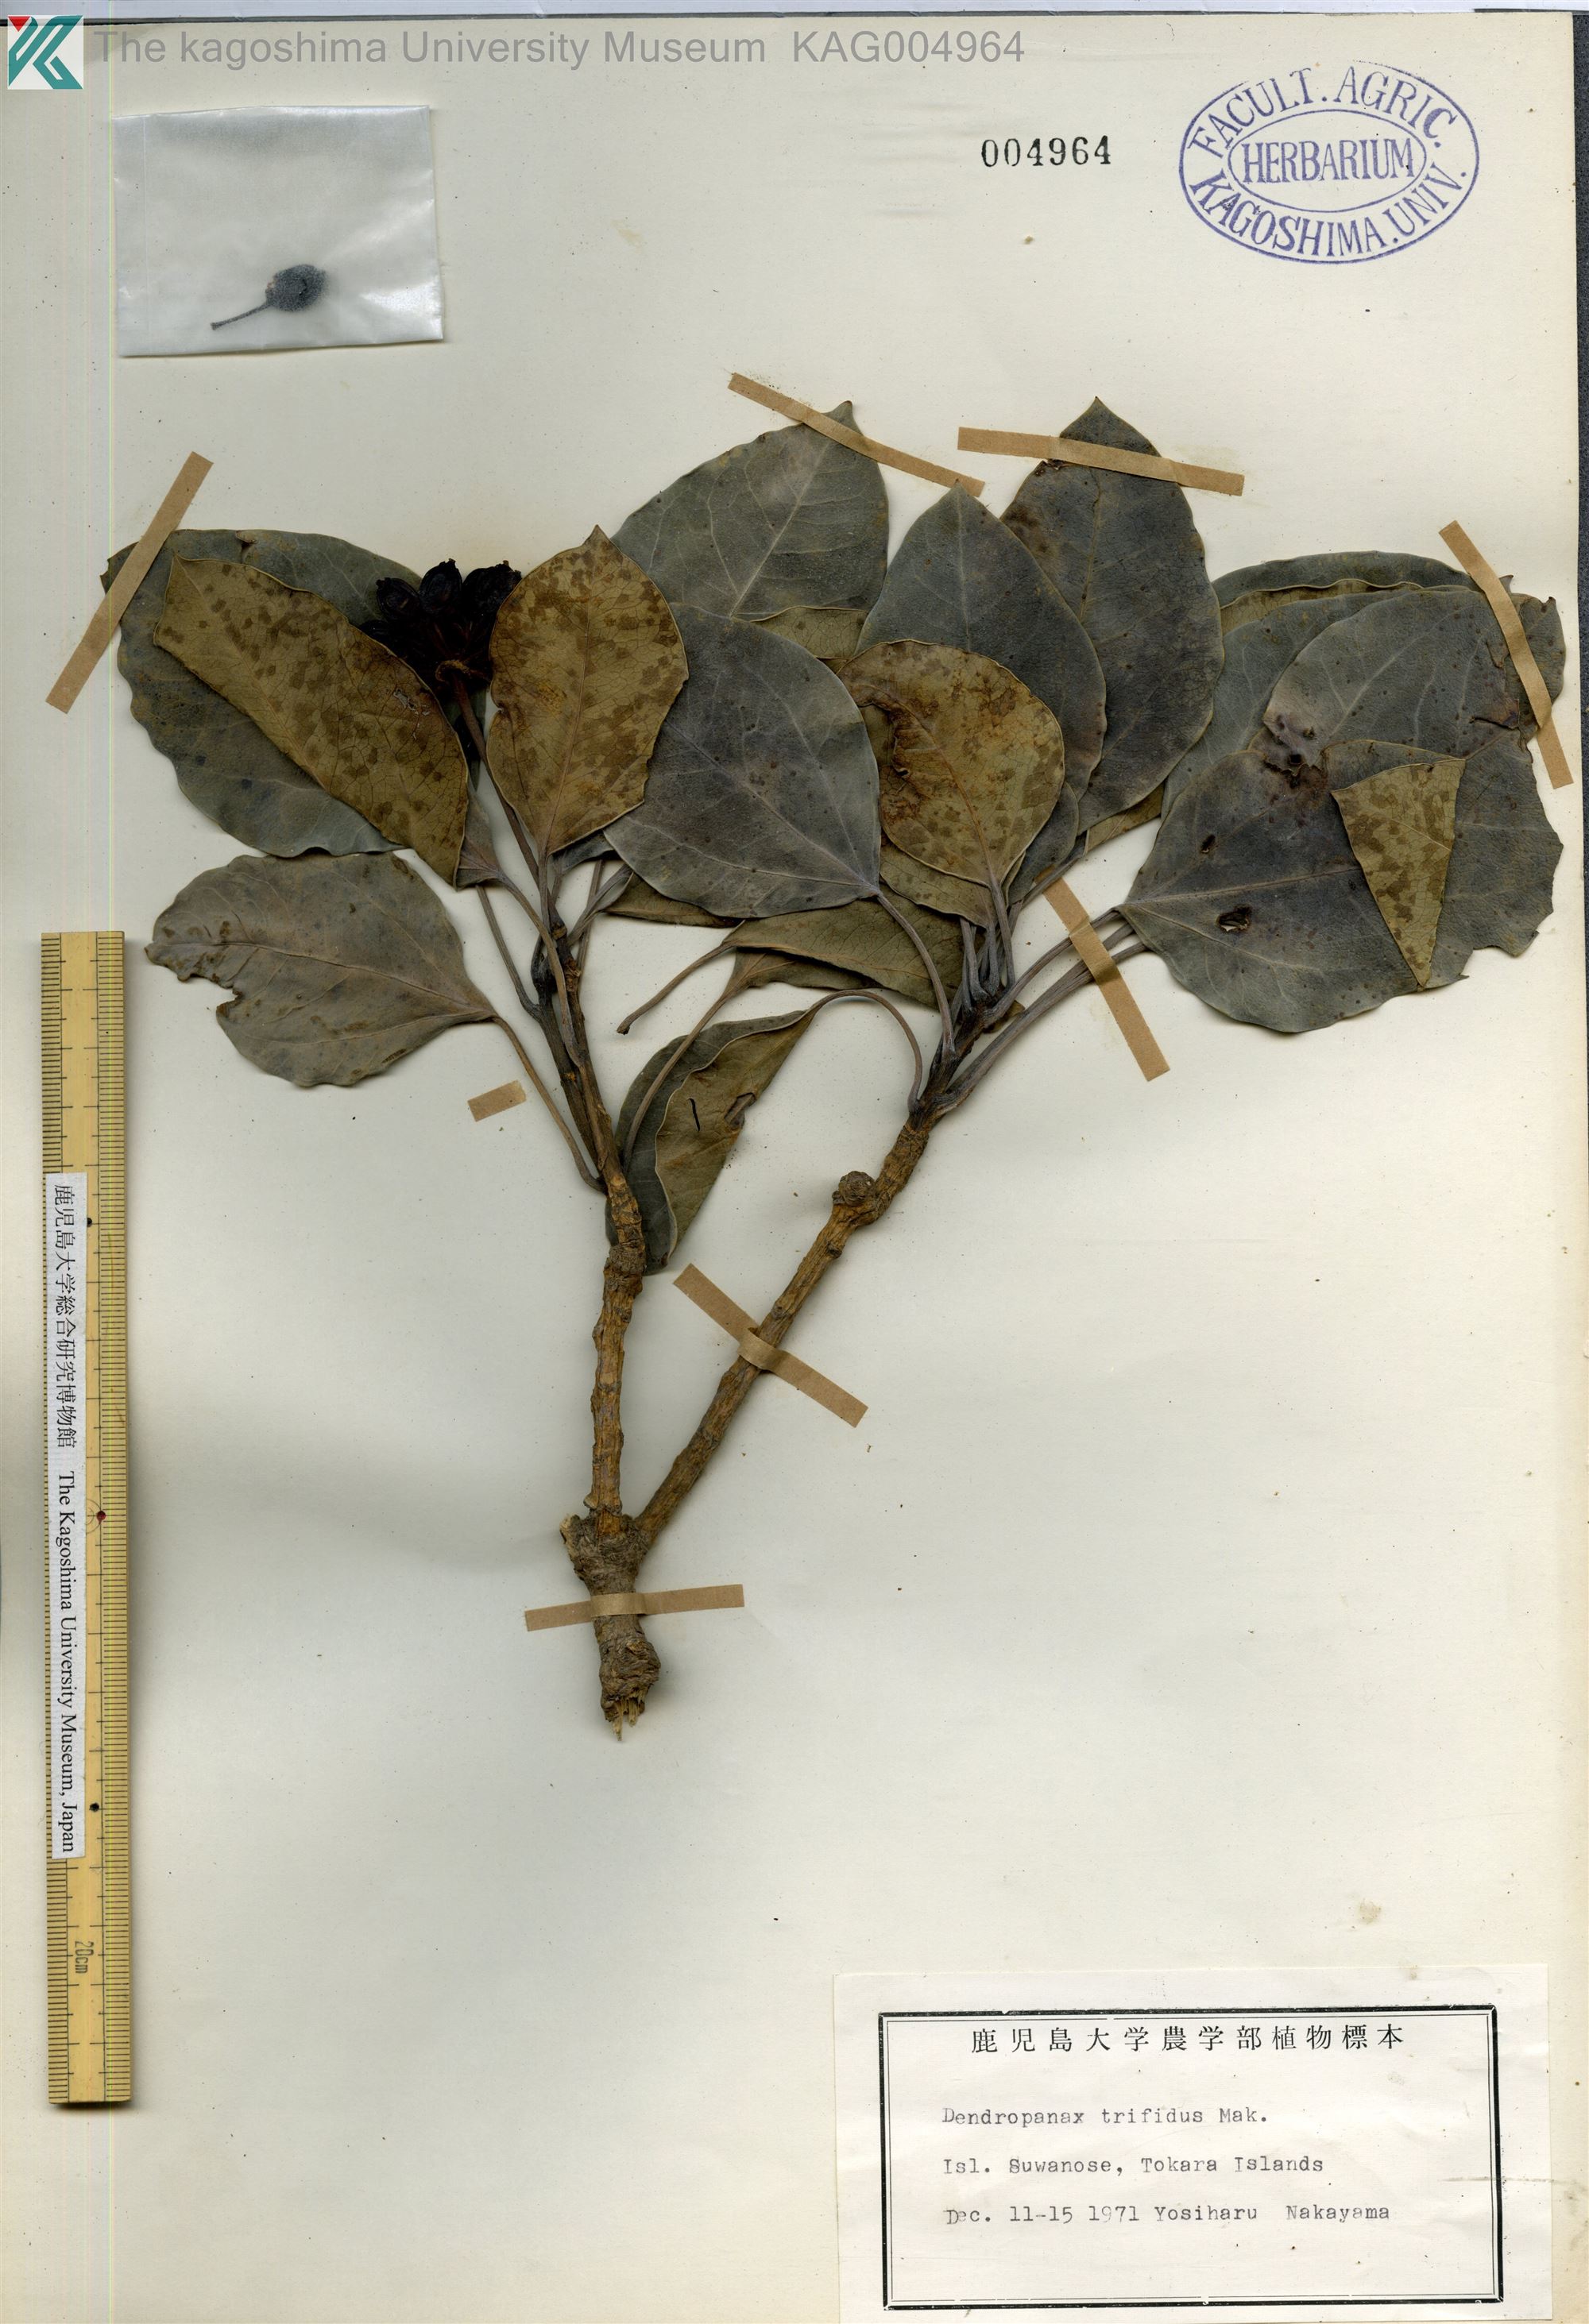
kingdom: Plantae
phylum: Tracheophyta
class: Magnoliopsida
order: Apiales
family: Araliaceae
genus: Dendropanax
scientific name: Dendropanax trifidus
